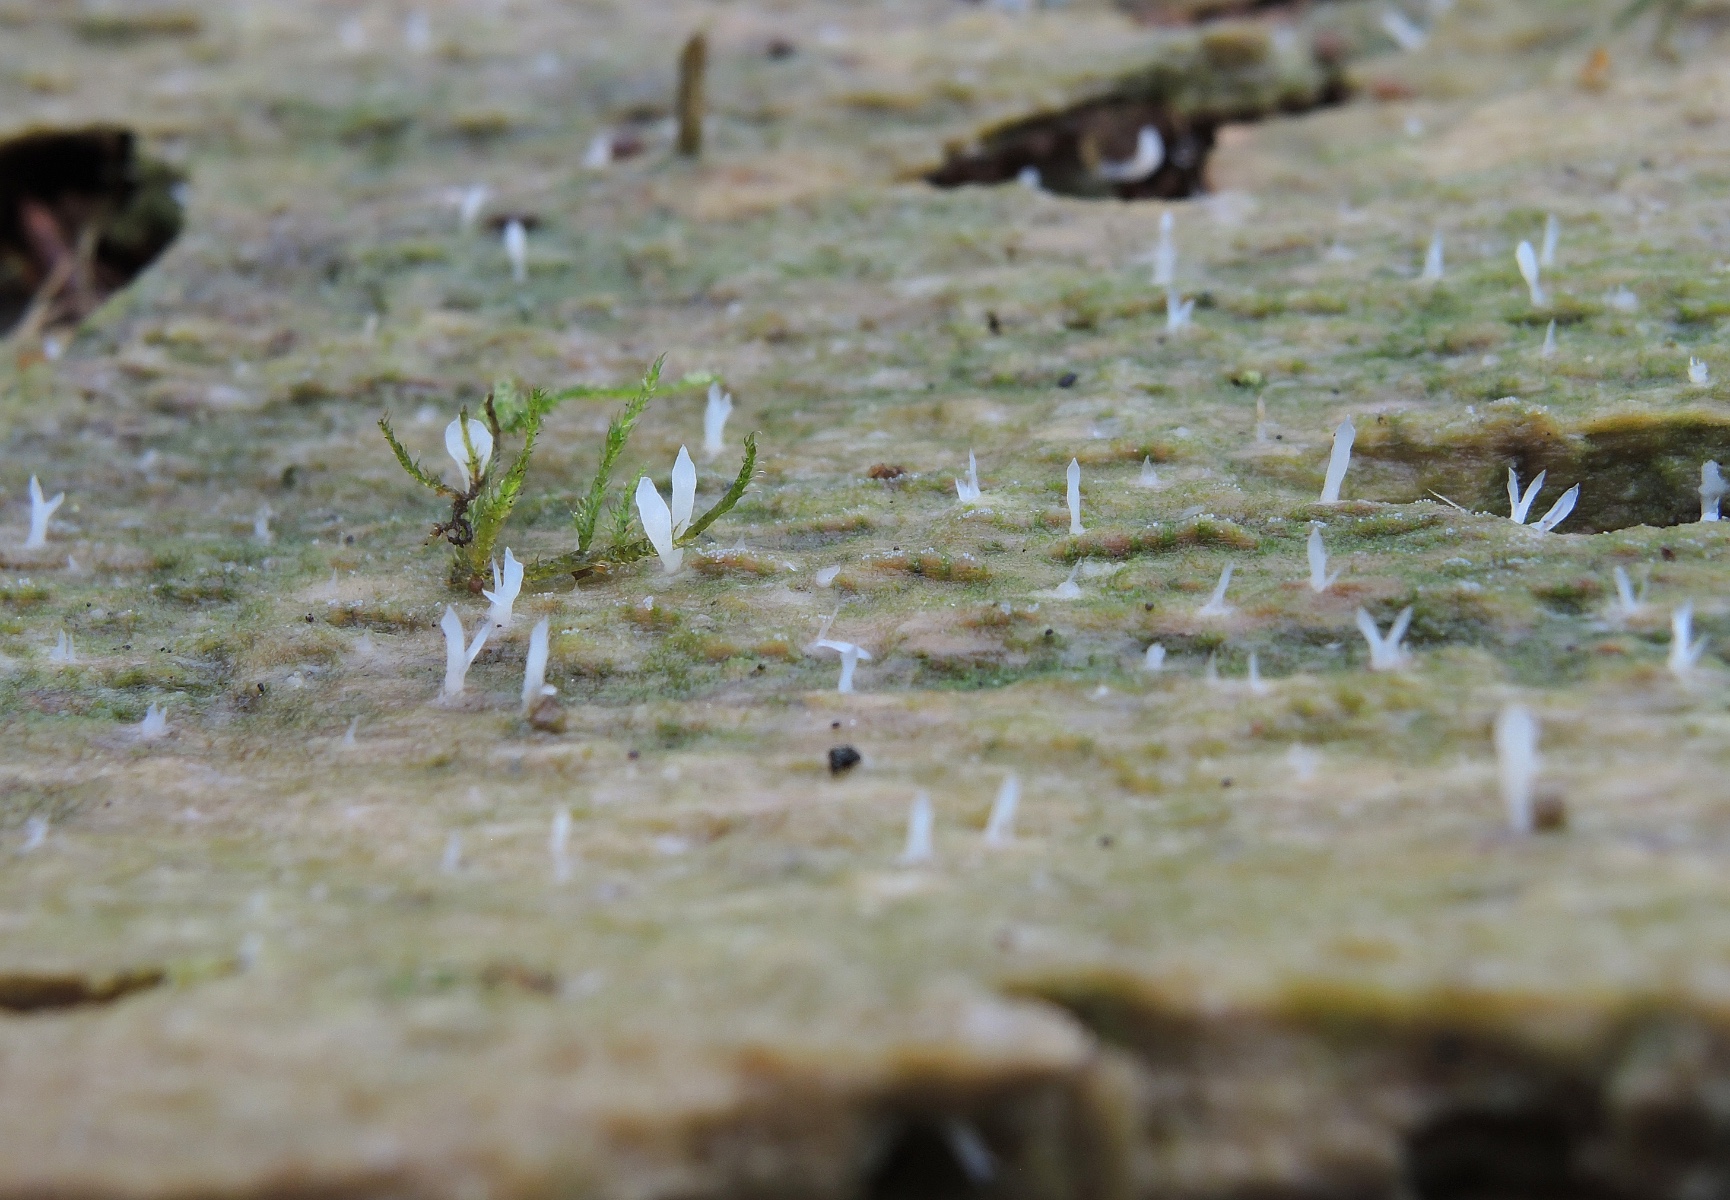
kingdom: Fungi
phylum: Basidiomycota
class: Agaricomycetes
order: Cantharellales
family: Hydnaceae
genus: Multiclavula
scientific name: Multiclavula mucida
